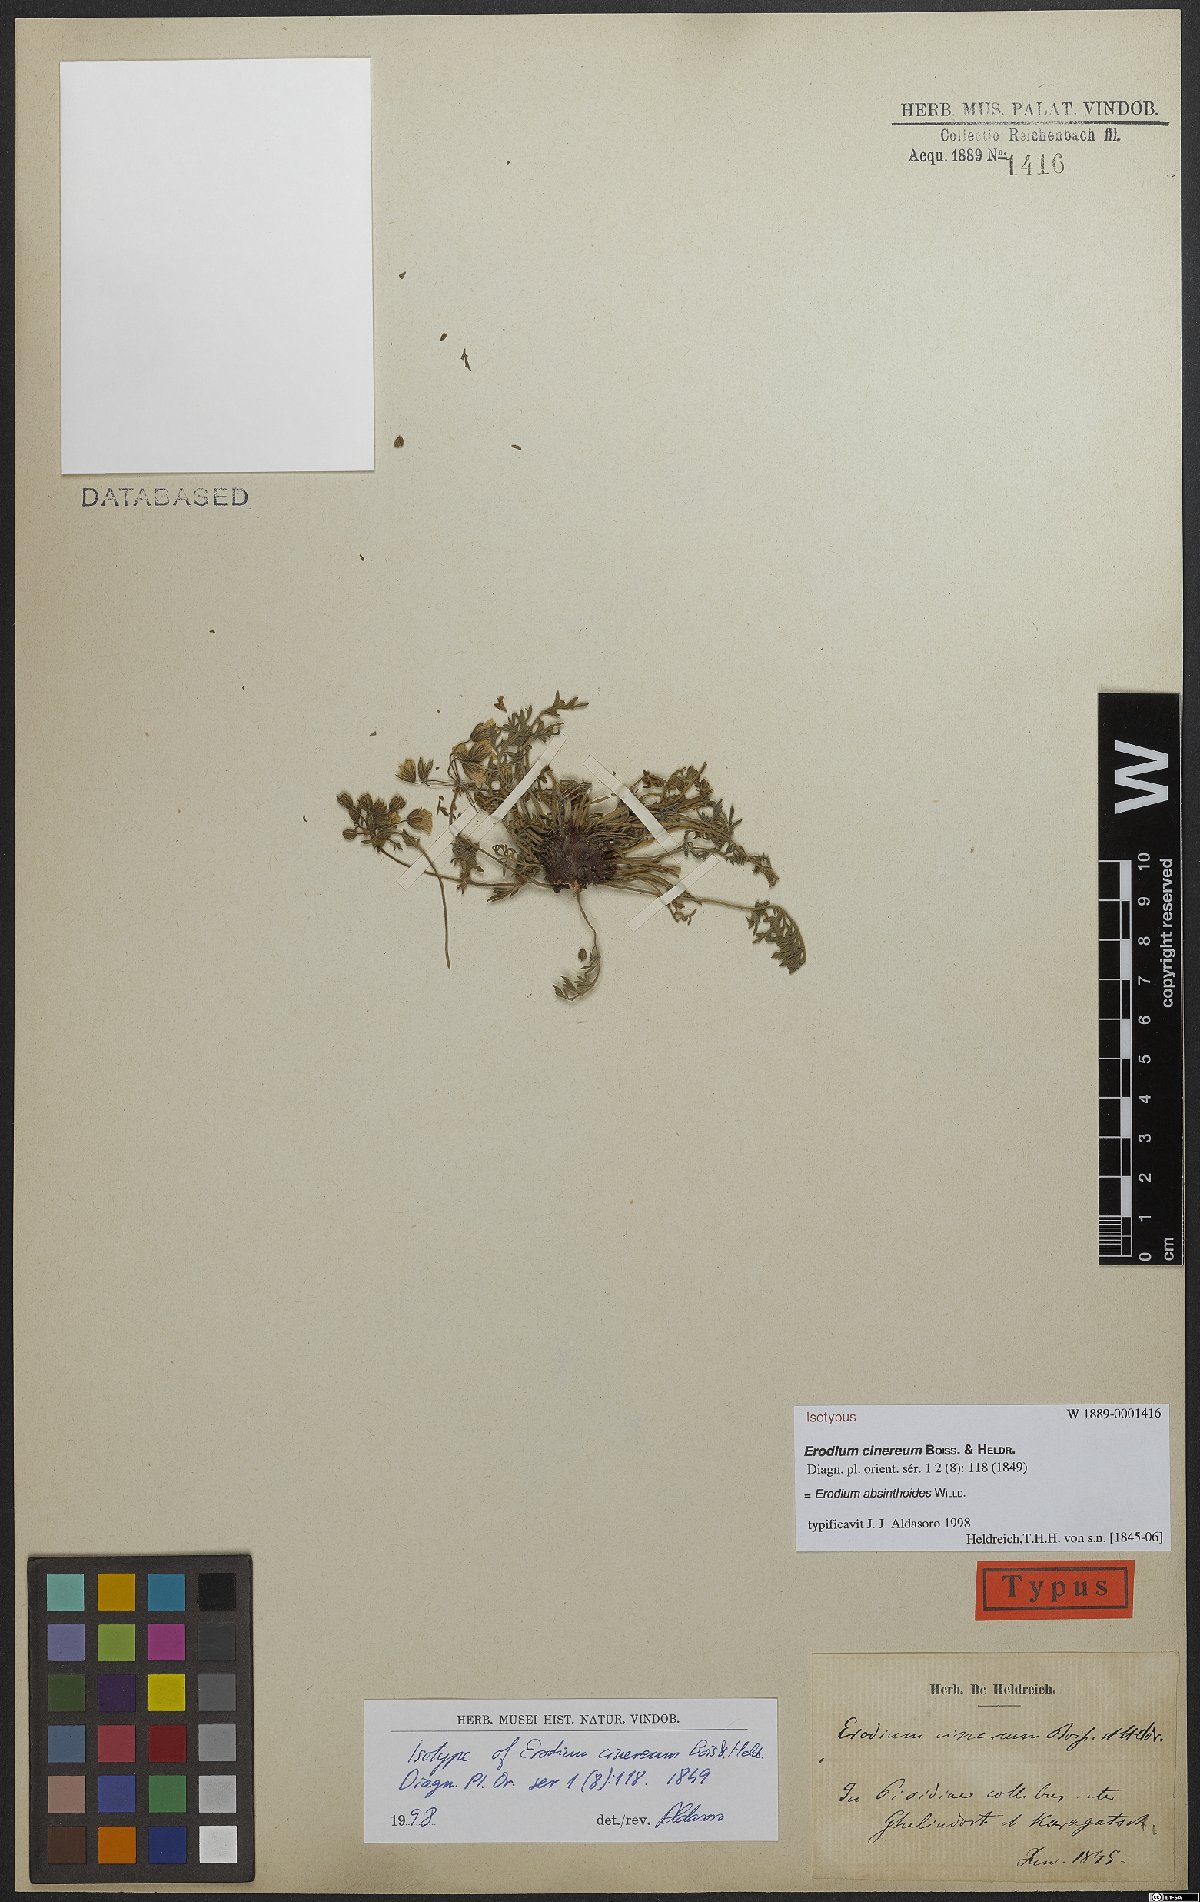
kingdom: Plantae
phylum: Tracheophyta
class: Magnoliopsida
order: Geraniales
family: Geraniaceae
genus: Erodium
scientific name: Erodium absinthoides
